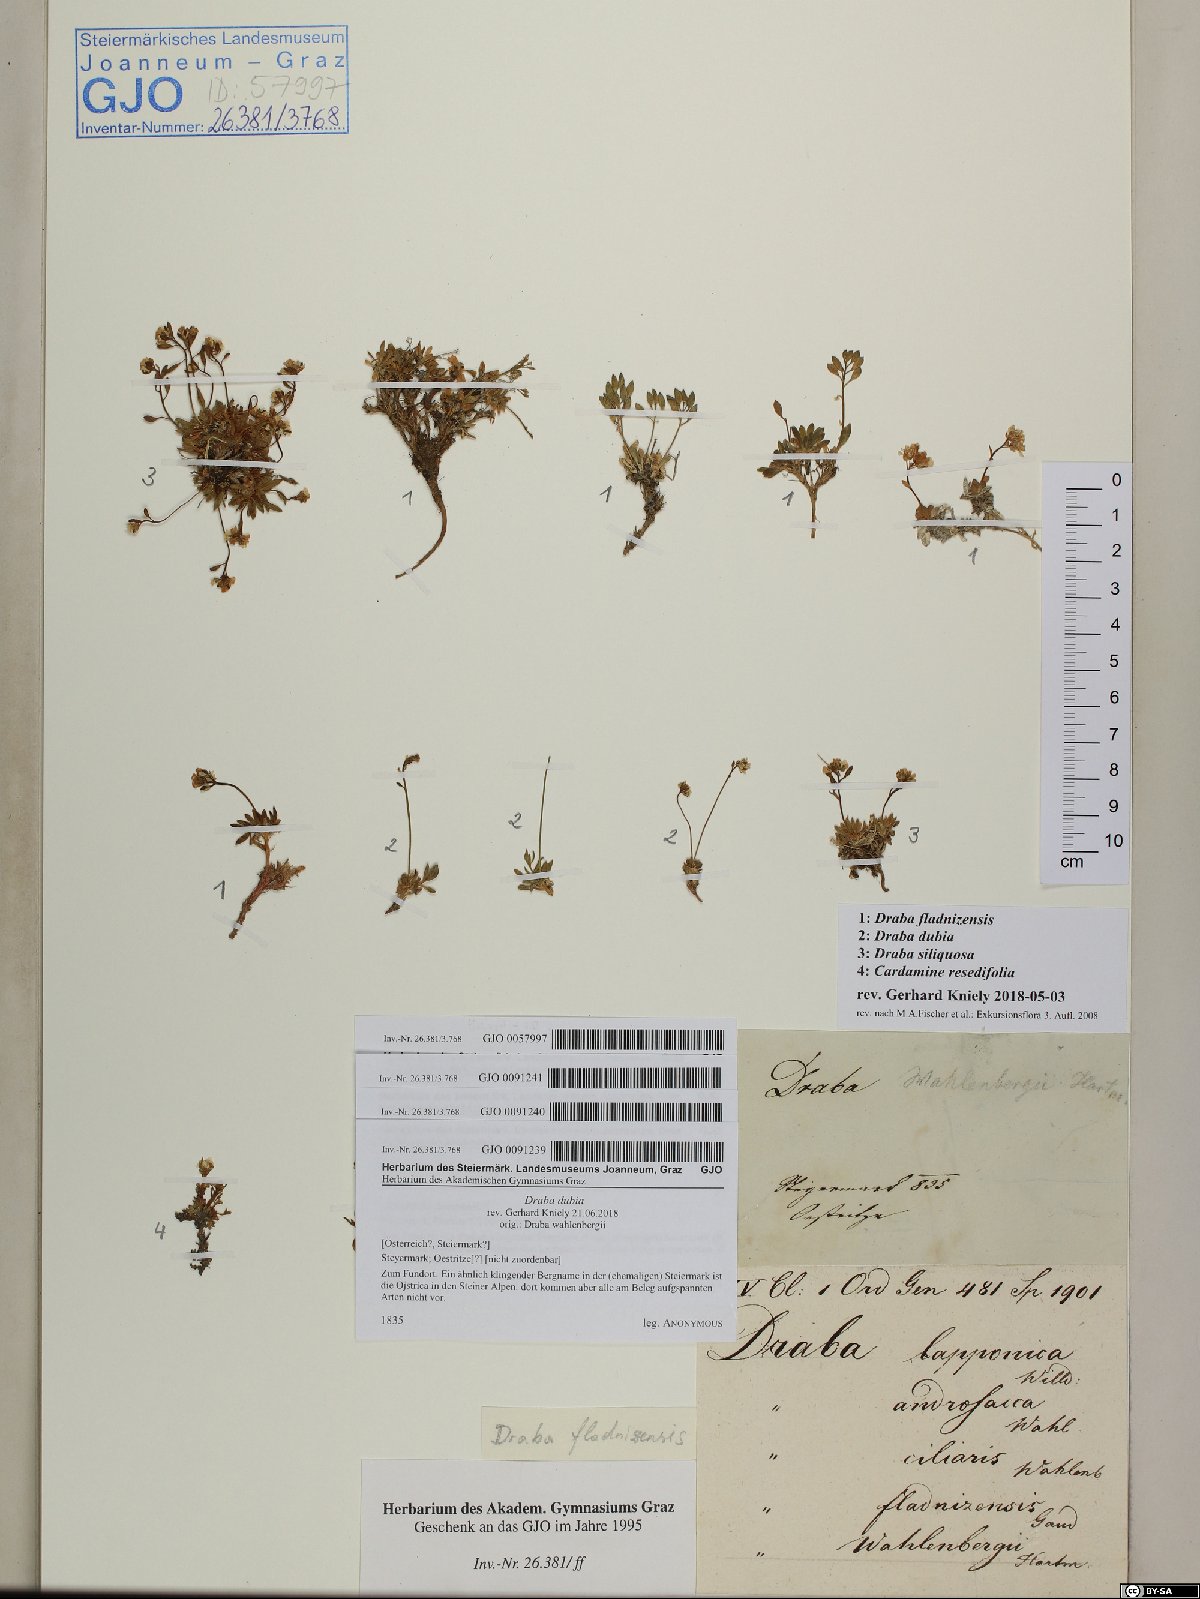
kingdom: Plantae
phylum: Tracheophyta
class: Magnoliopsida
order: Brassicales
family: Brassicaceae
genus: Cardamine
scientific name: Cardamine resedifolia
